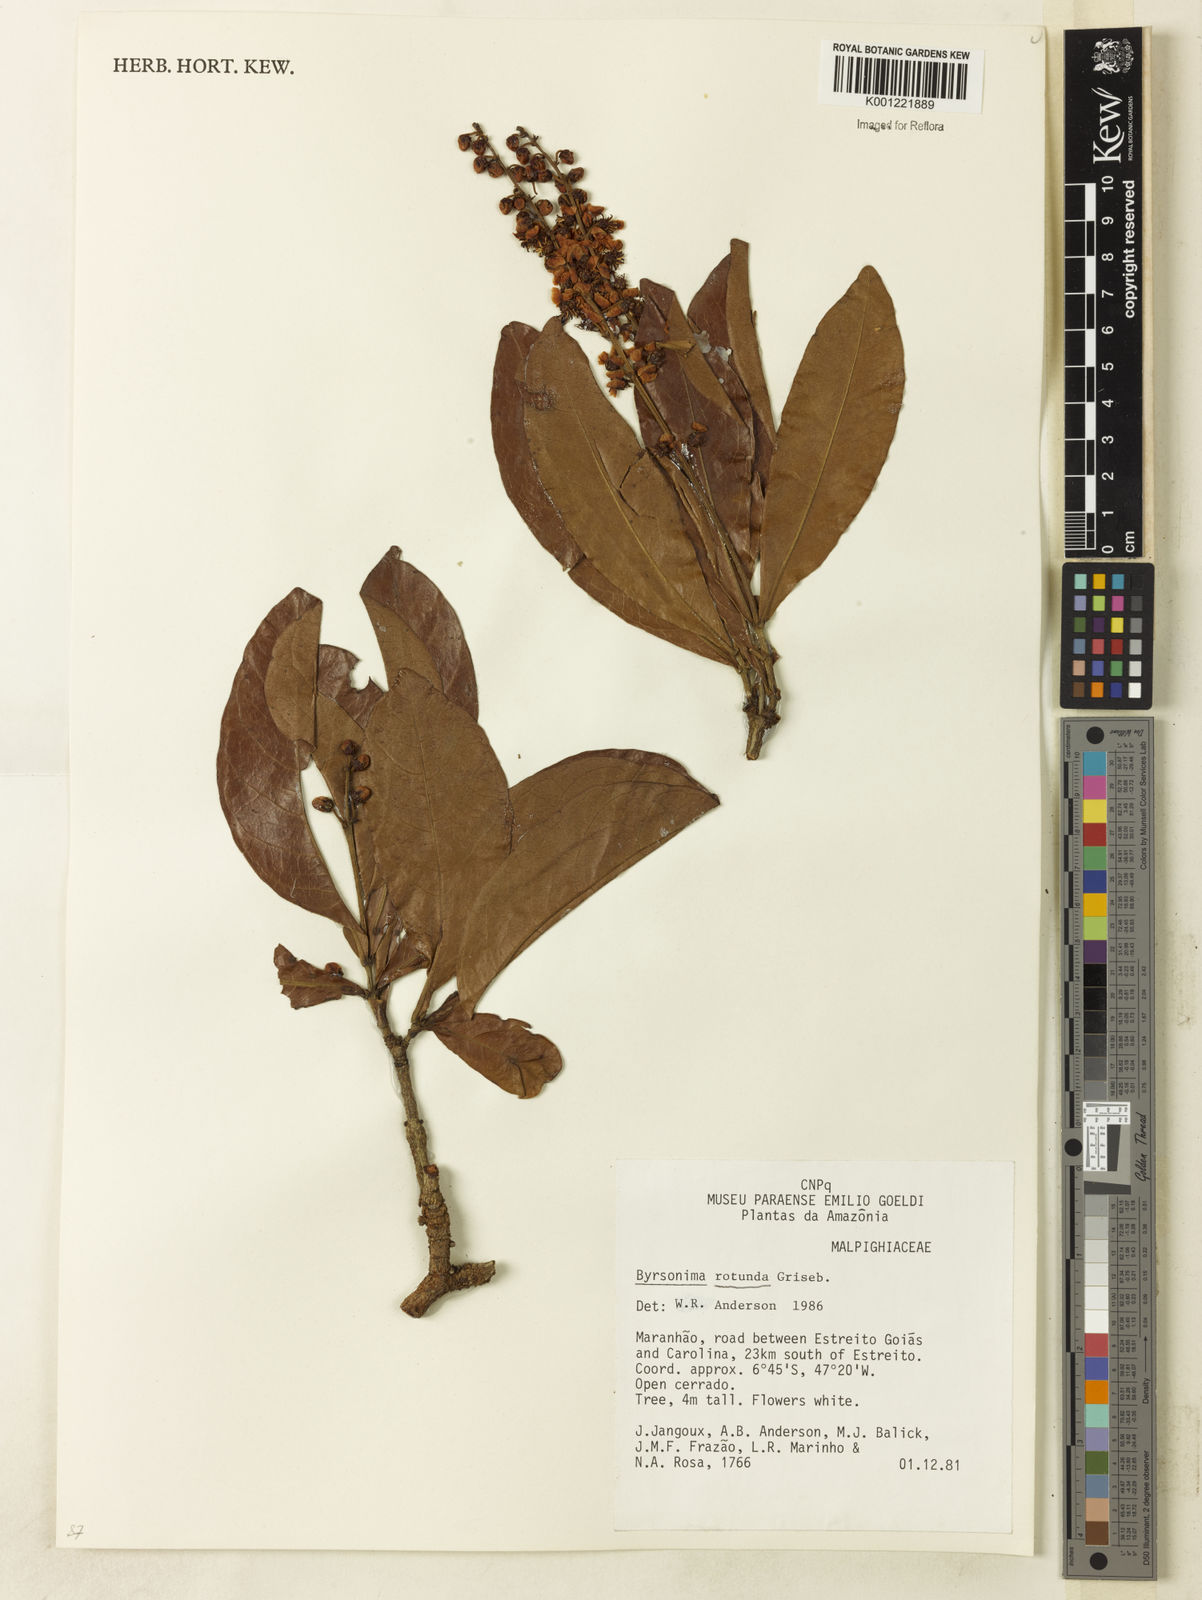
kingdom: Plantae
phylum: Tracheophyta
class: Magnoliopsida
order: Malpighiales
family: Malpighiaceae
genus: Byrsonima
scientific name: Byrsonima rotunda
